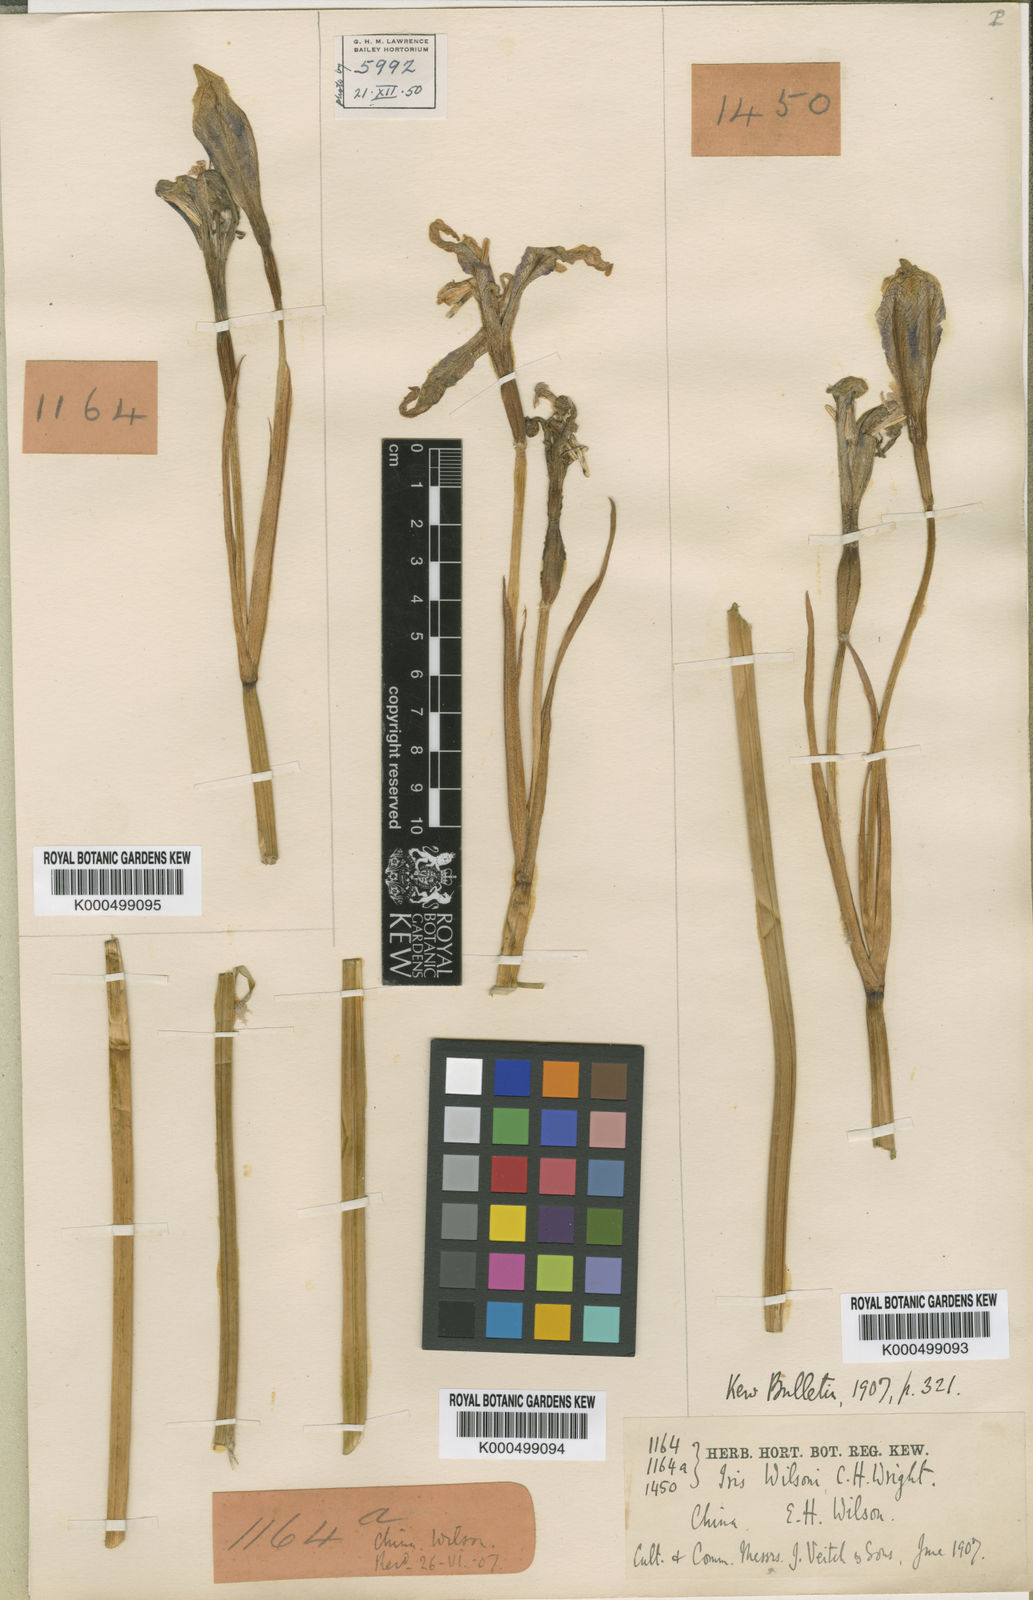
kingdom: Plantae
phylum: Tracheophyta
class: Liliopsida
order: Asparagales
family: Iridaceae
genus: Iris
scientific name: Iris wilsonii
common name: Yellow-flower iris
